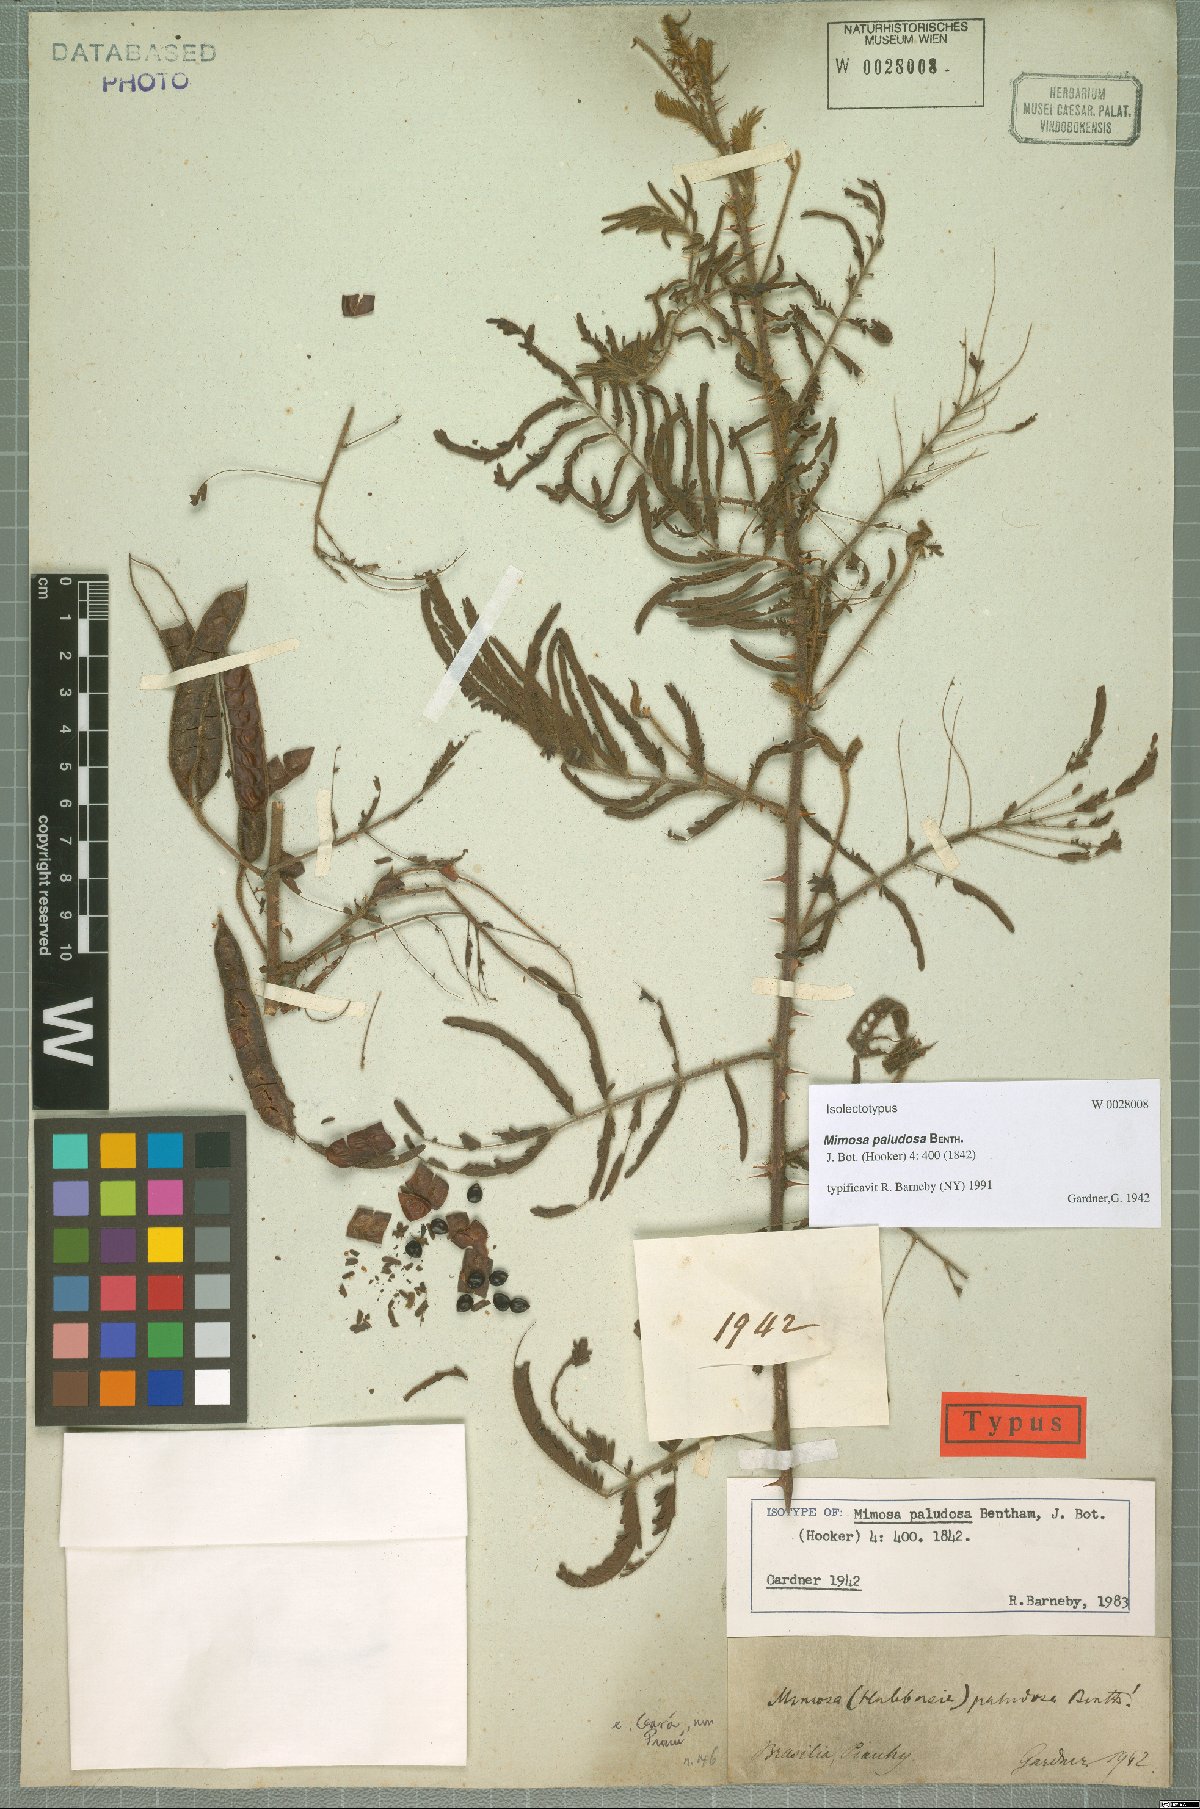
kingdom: Plantae
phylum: Tracheophyta
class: Magnoliopsida
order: Fabales
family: Fabaceae
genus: Mimosa
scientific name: Mimosa paludosa
